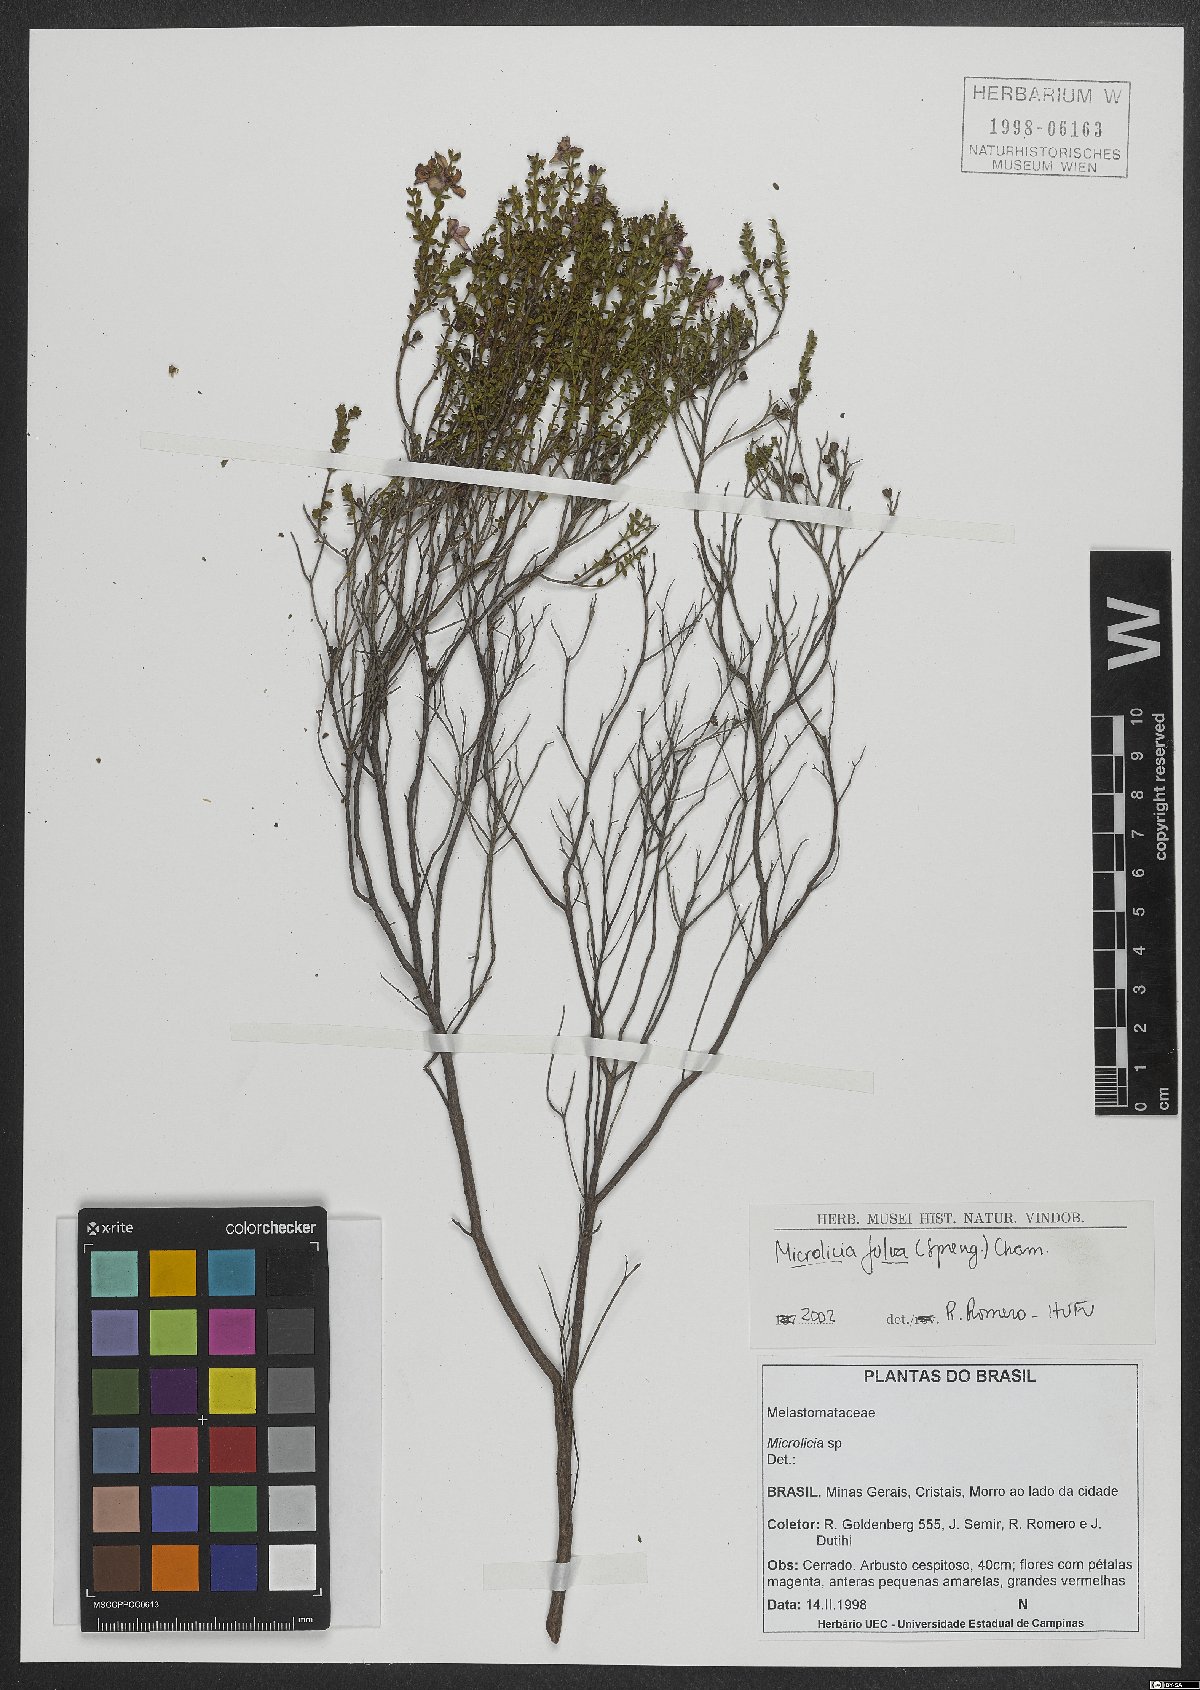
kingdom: Plantae
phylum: Tracheophyta
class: Magnoliopsida
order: Myrtales
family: Melastomataceae
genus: Microlicia
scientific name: Microlicia fulva
